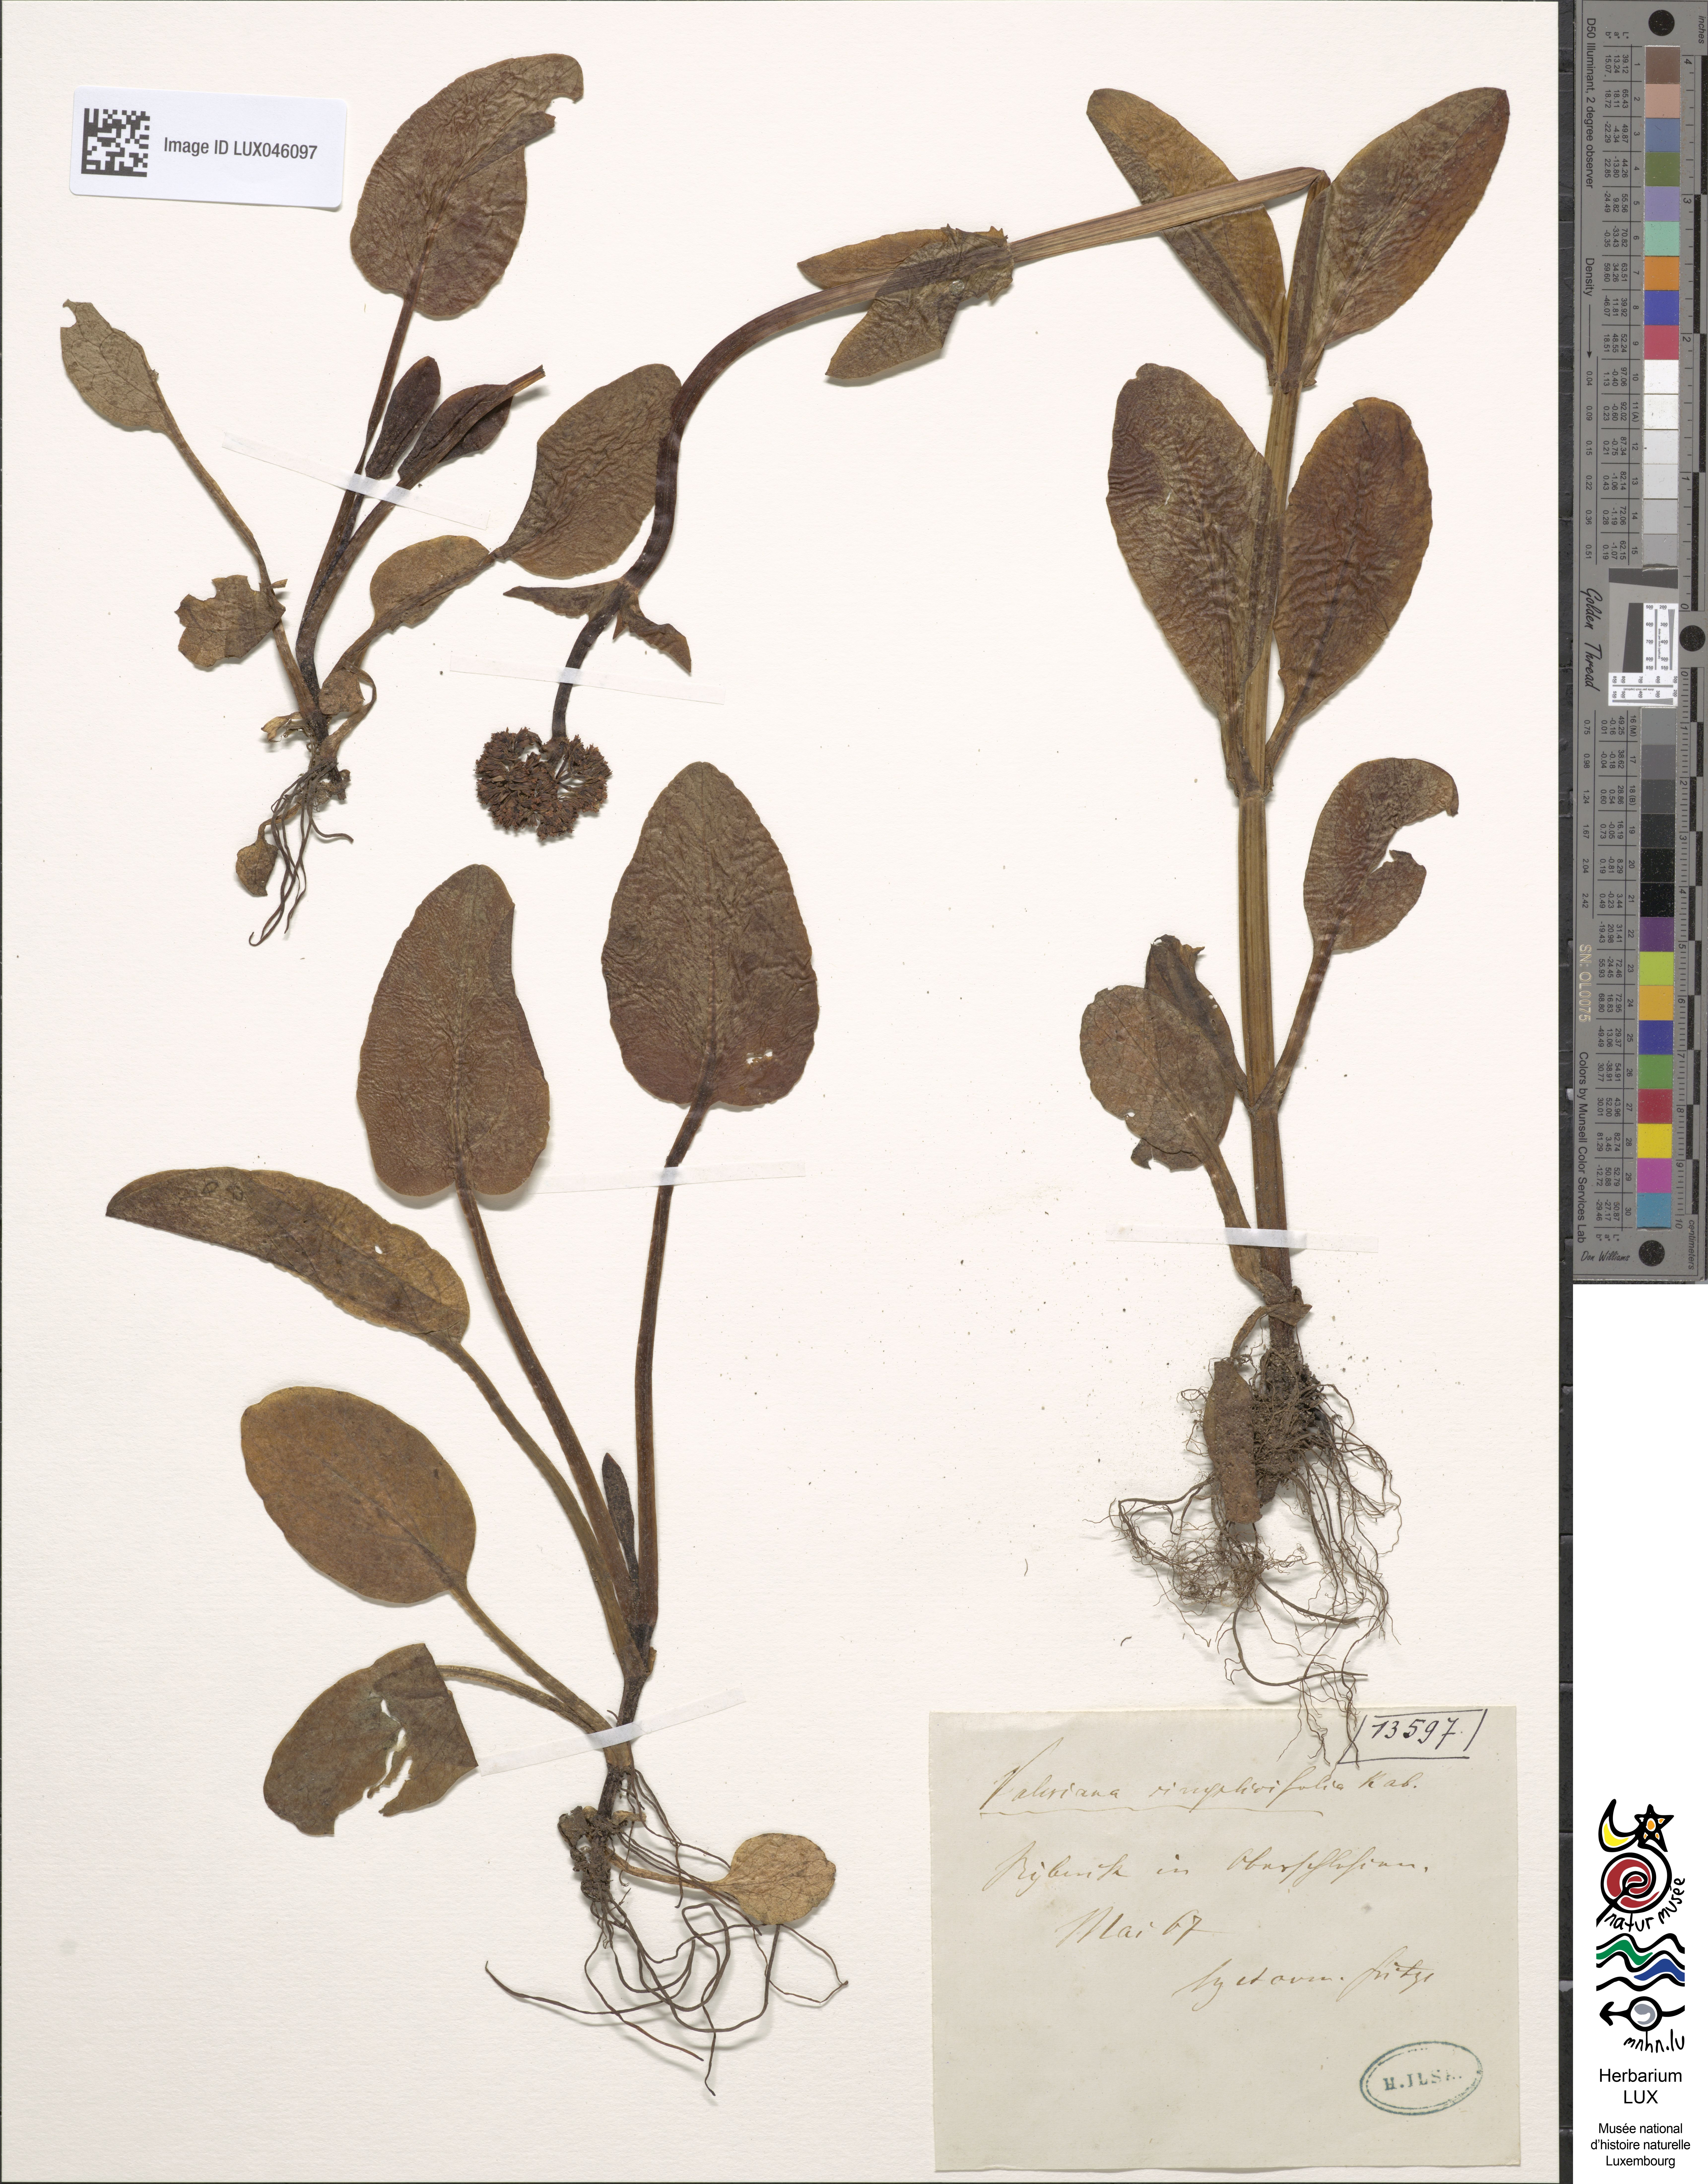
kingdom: Plantae
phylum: Tracheophyta
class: Magnoliopsida
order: Dipsacales
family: Caprifoliaceae
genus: Valeriana
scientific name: Valeriana dioica
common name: Marsh valerian
